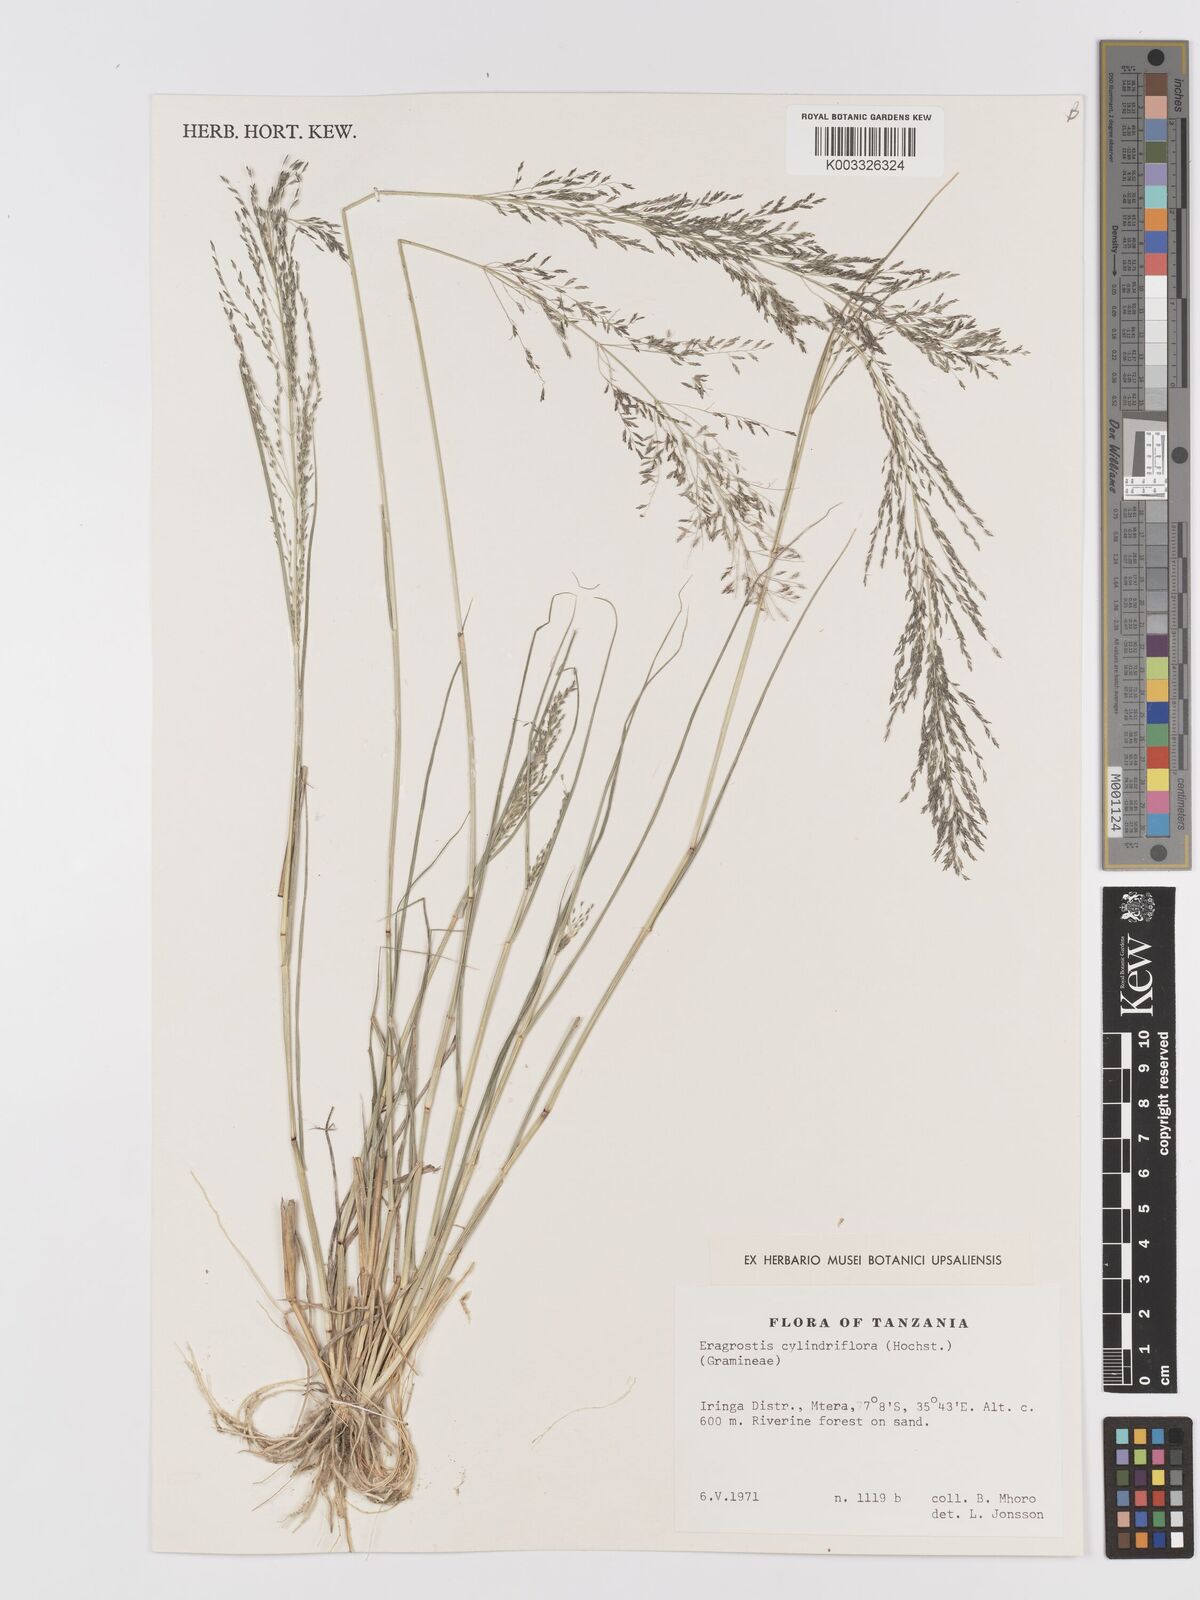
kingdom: Plantae
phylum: Tracheophyta
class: Liliopsida
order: Poales
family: Poaceae
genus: Eragrostis
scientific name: Eragrostis cylindriflora
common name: Cylinderflower lovegrass
